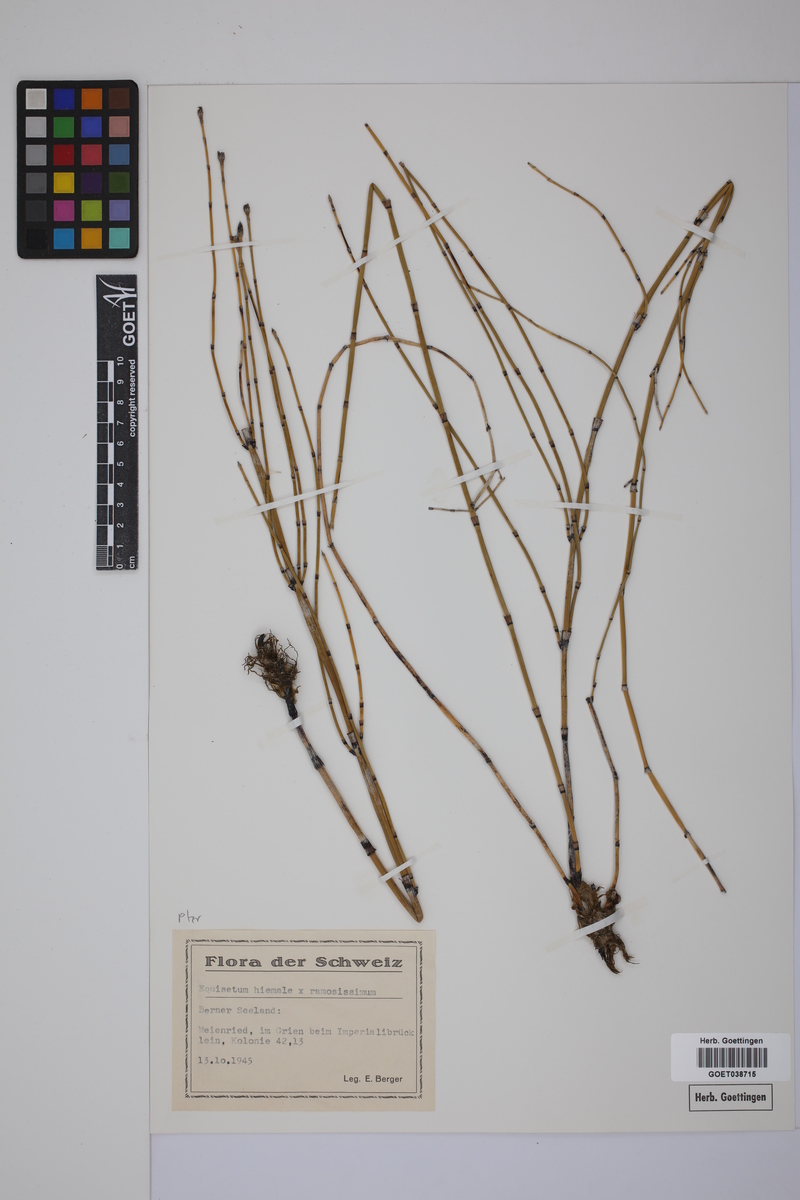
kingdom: Plantae
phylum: Tracheophyta
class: Polypodiopsida
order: Equisetales
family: Equisetaceae
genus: Equisetum
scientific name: Equisetum moorei
